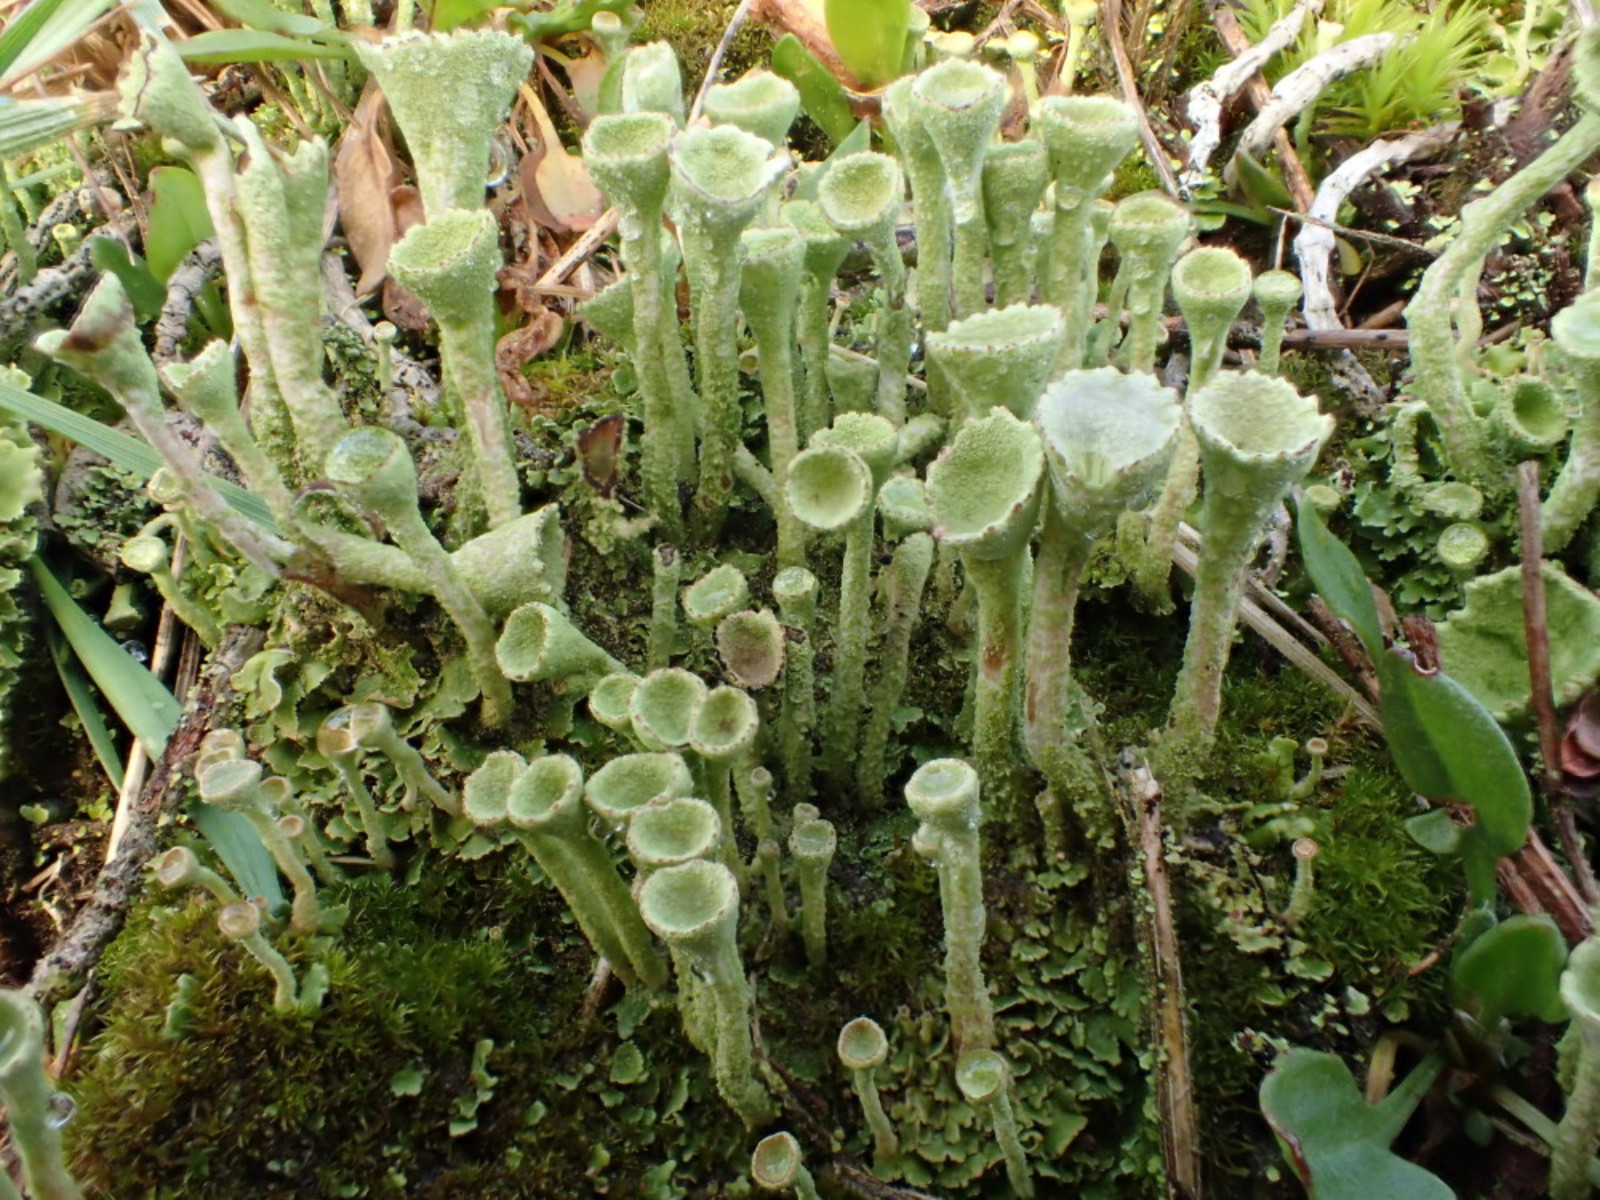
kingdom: Fungi
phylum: Ascomycota
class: Lecanoromycetes
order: Lecanorales
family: Cladoniaceae
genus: Cladonia
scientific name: Cladonia fimbriata
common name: bleggrøn bægerlav
